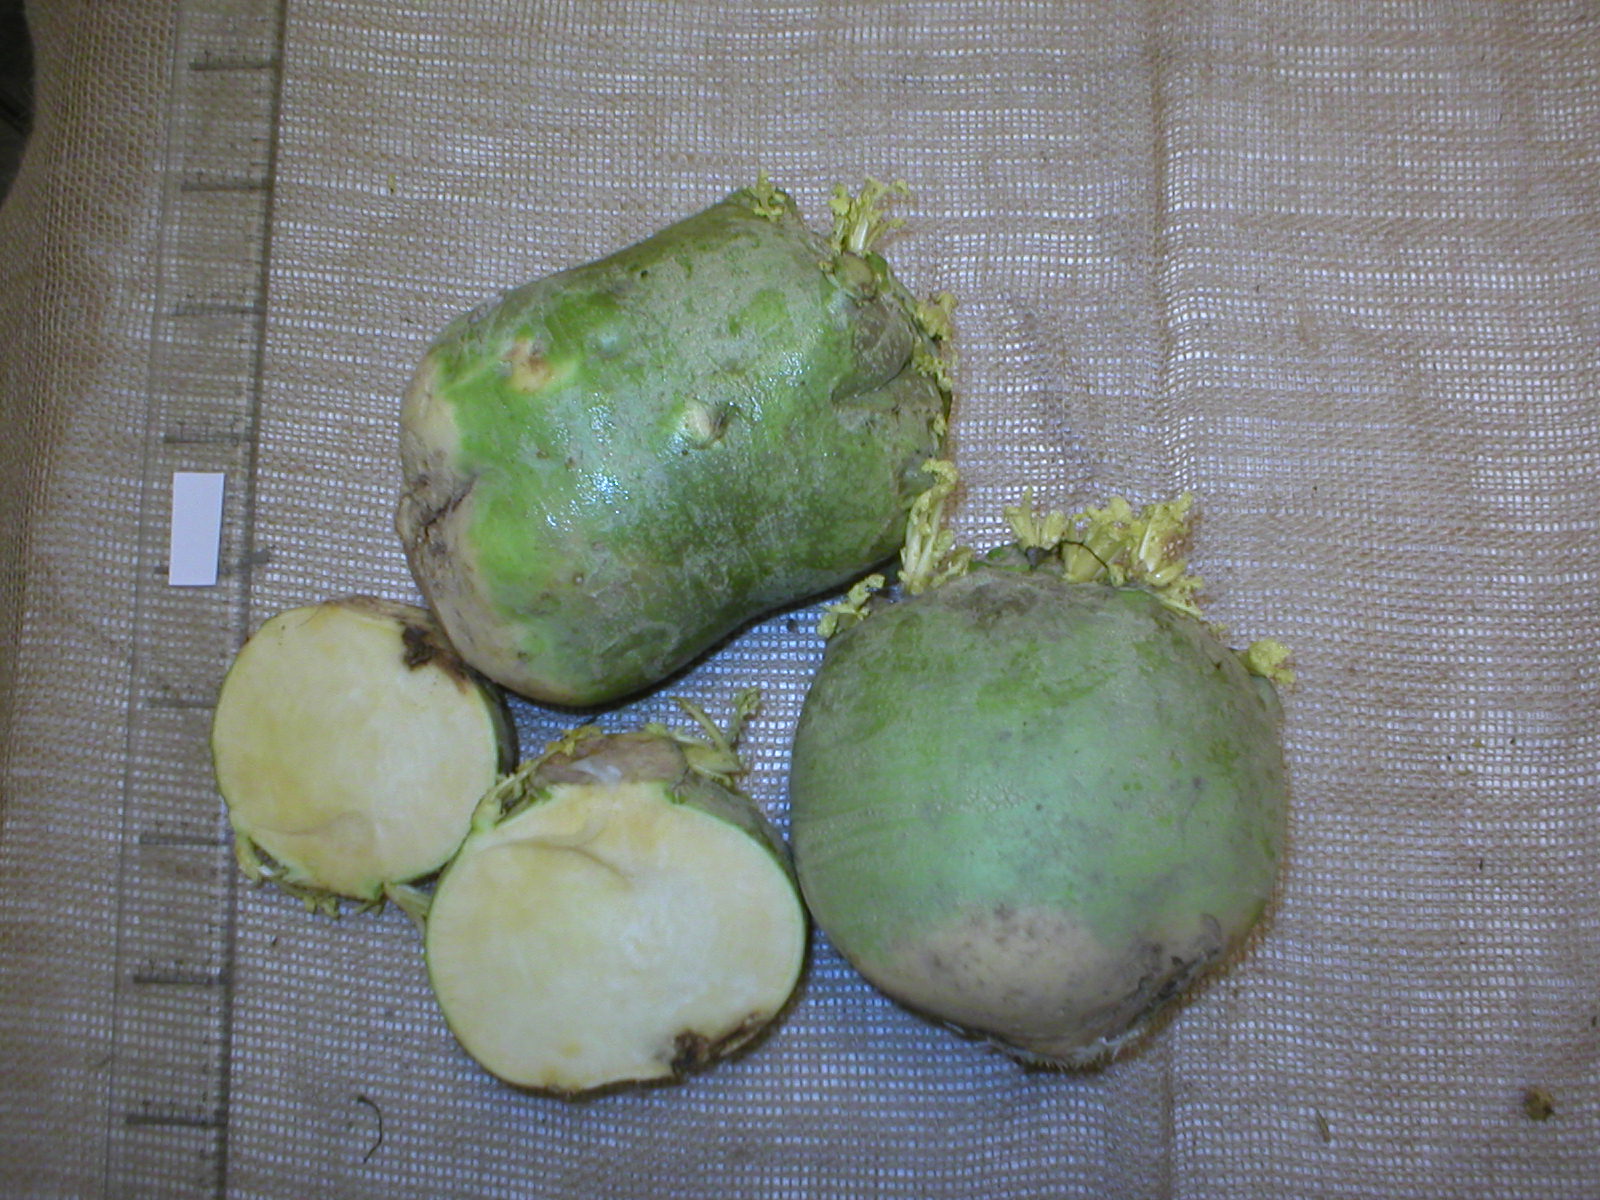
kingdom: Plantae
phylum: Tracheophyta
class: Magnoliopsida
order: Brassicales
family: Brassicaceae
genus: Brassica
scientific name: Brassica napus
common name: Rape
